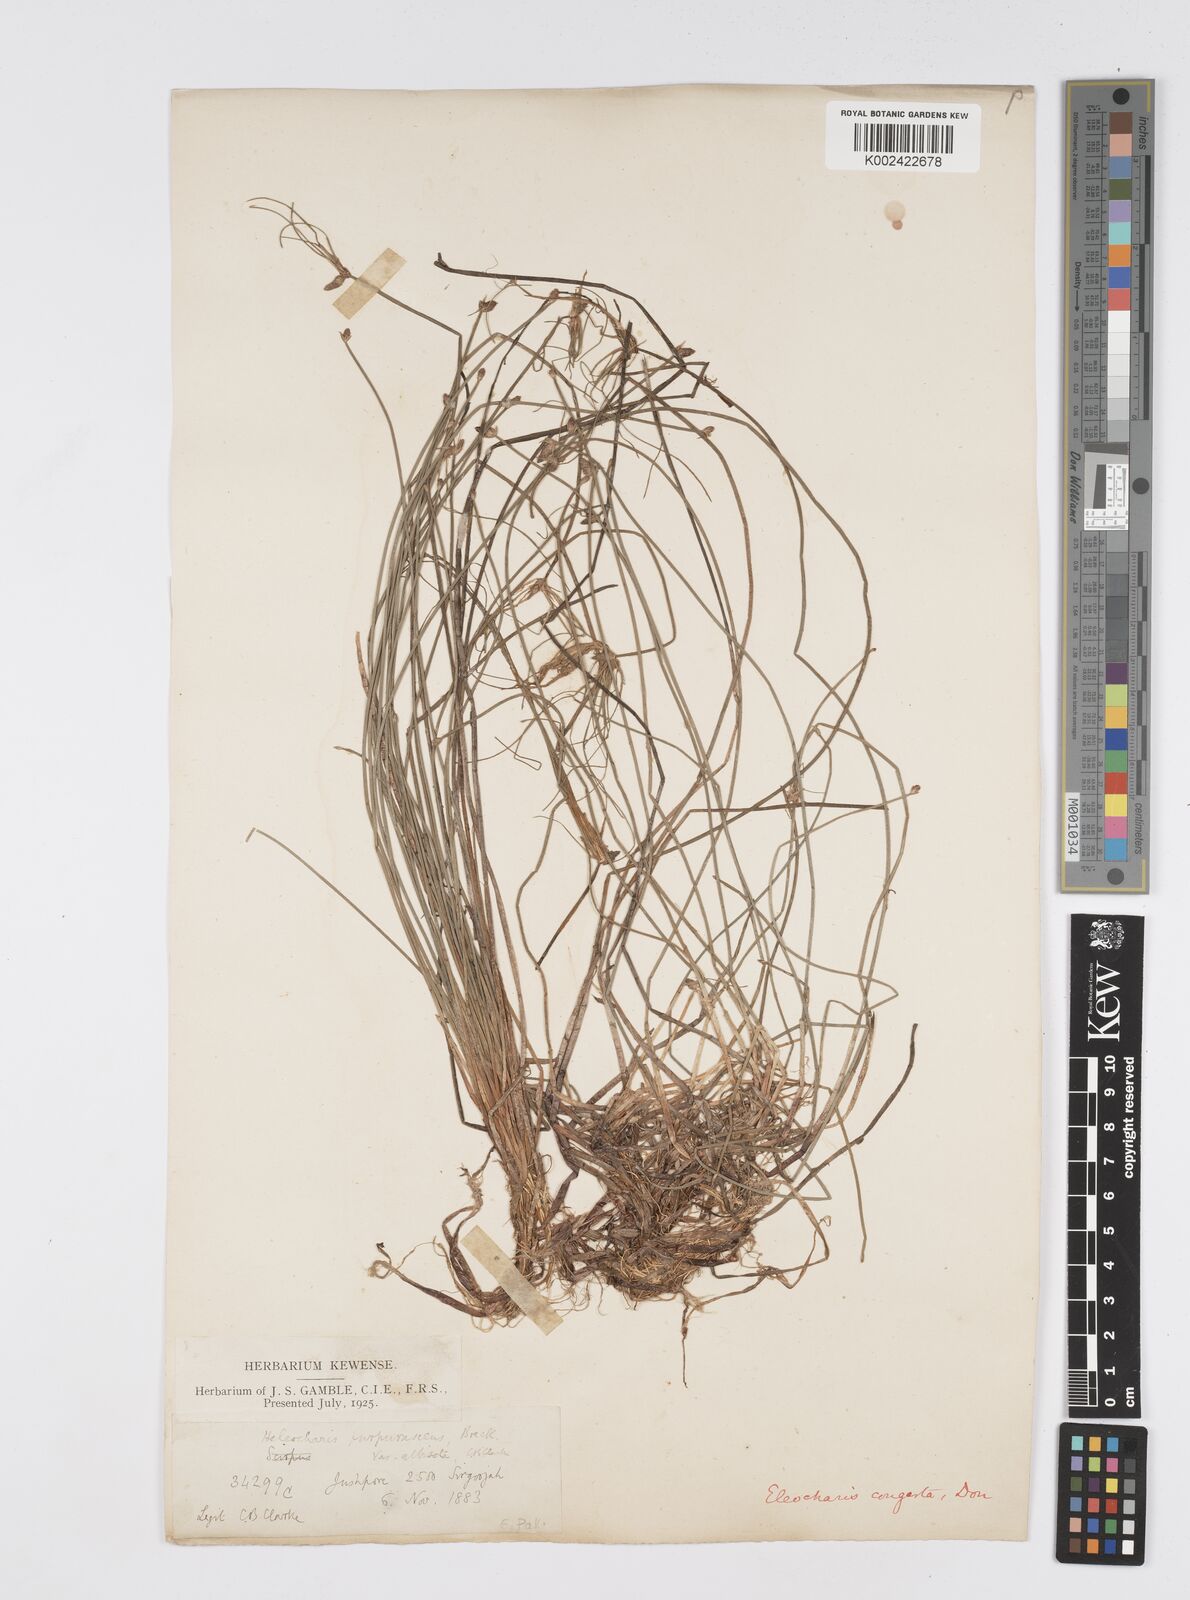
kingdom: Plantae
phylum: Tracheophyta
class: Liliopsida
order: Poales
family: Cyperaceae
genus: Eleocharis
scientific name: Eleocharis congesta
